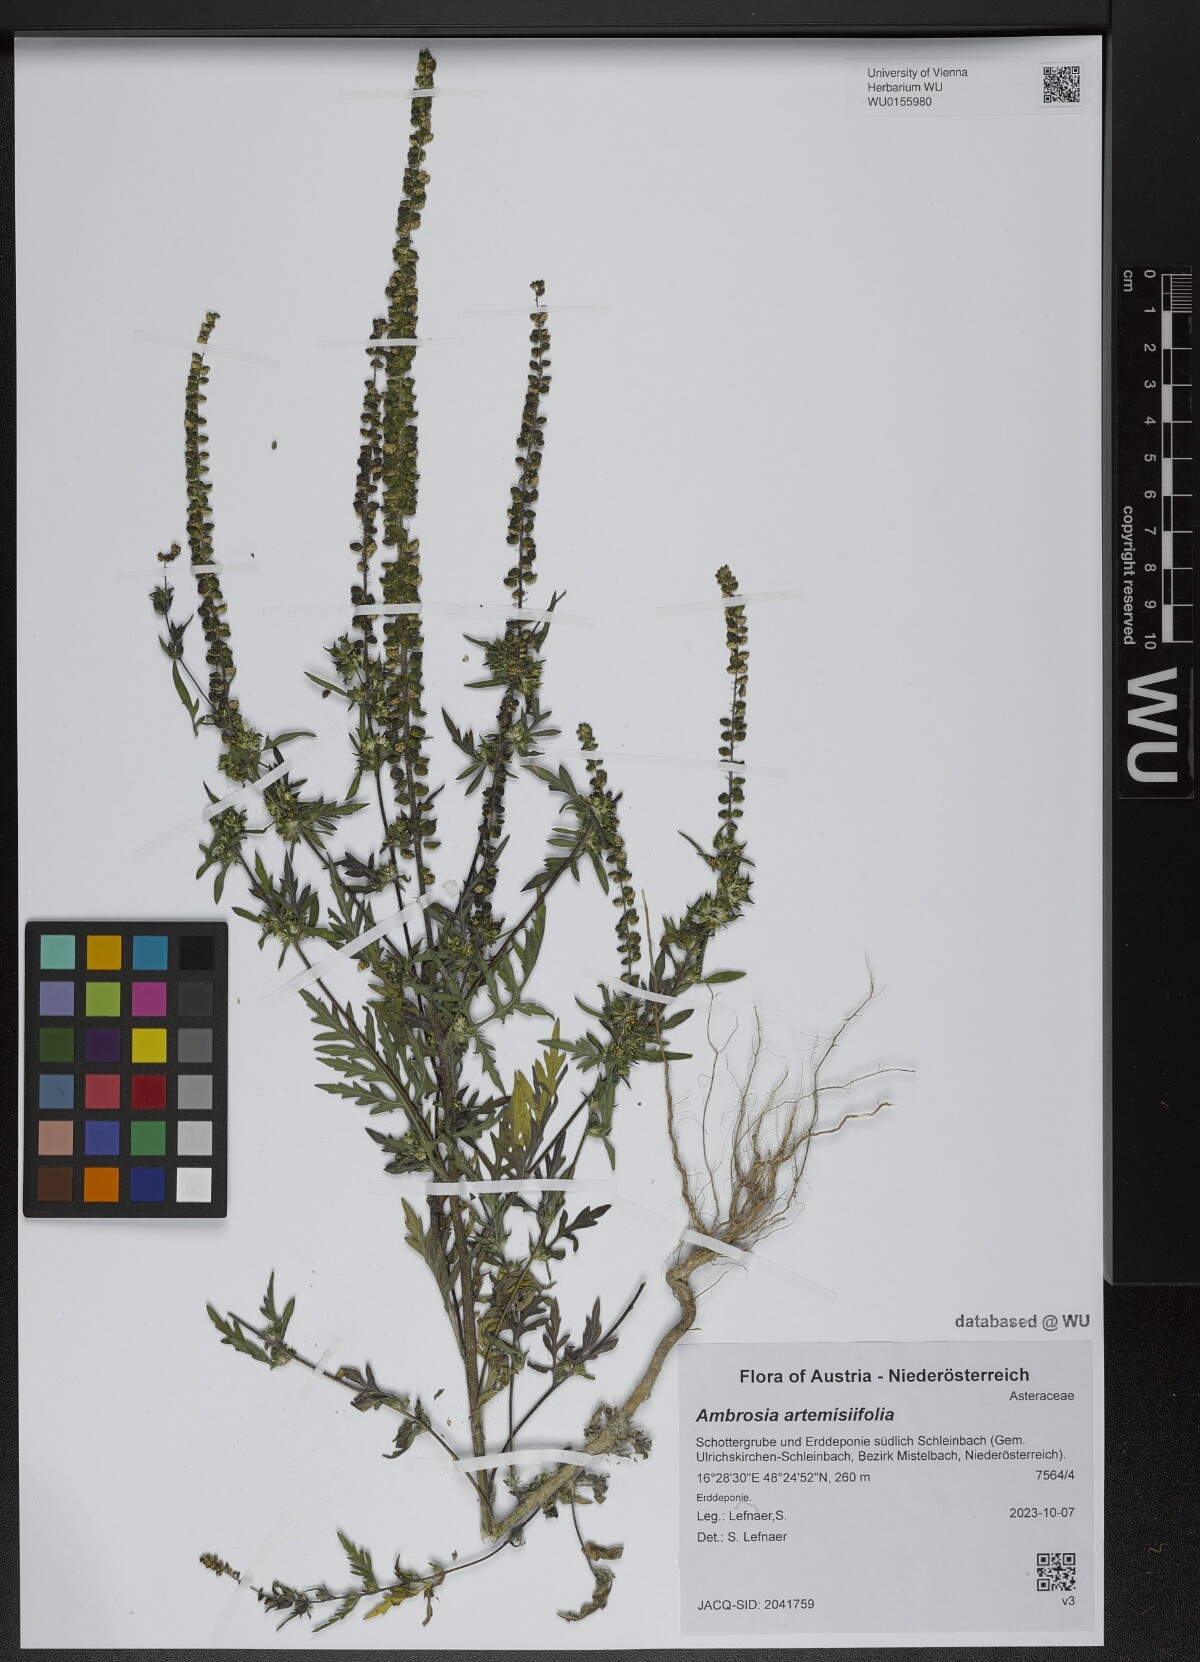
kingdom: Plantae
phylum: Tracheophyta
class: Magnoliopsida
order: Asterales
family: Asteraceae
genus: Ambrosia
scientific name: Ambrosia artemisiifolia
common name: Annual ragweed
